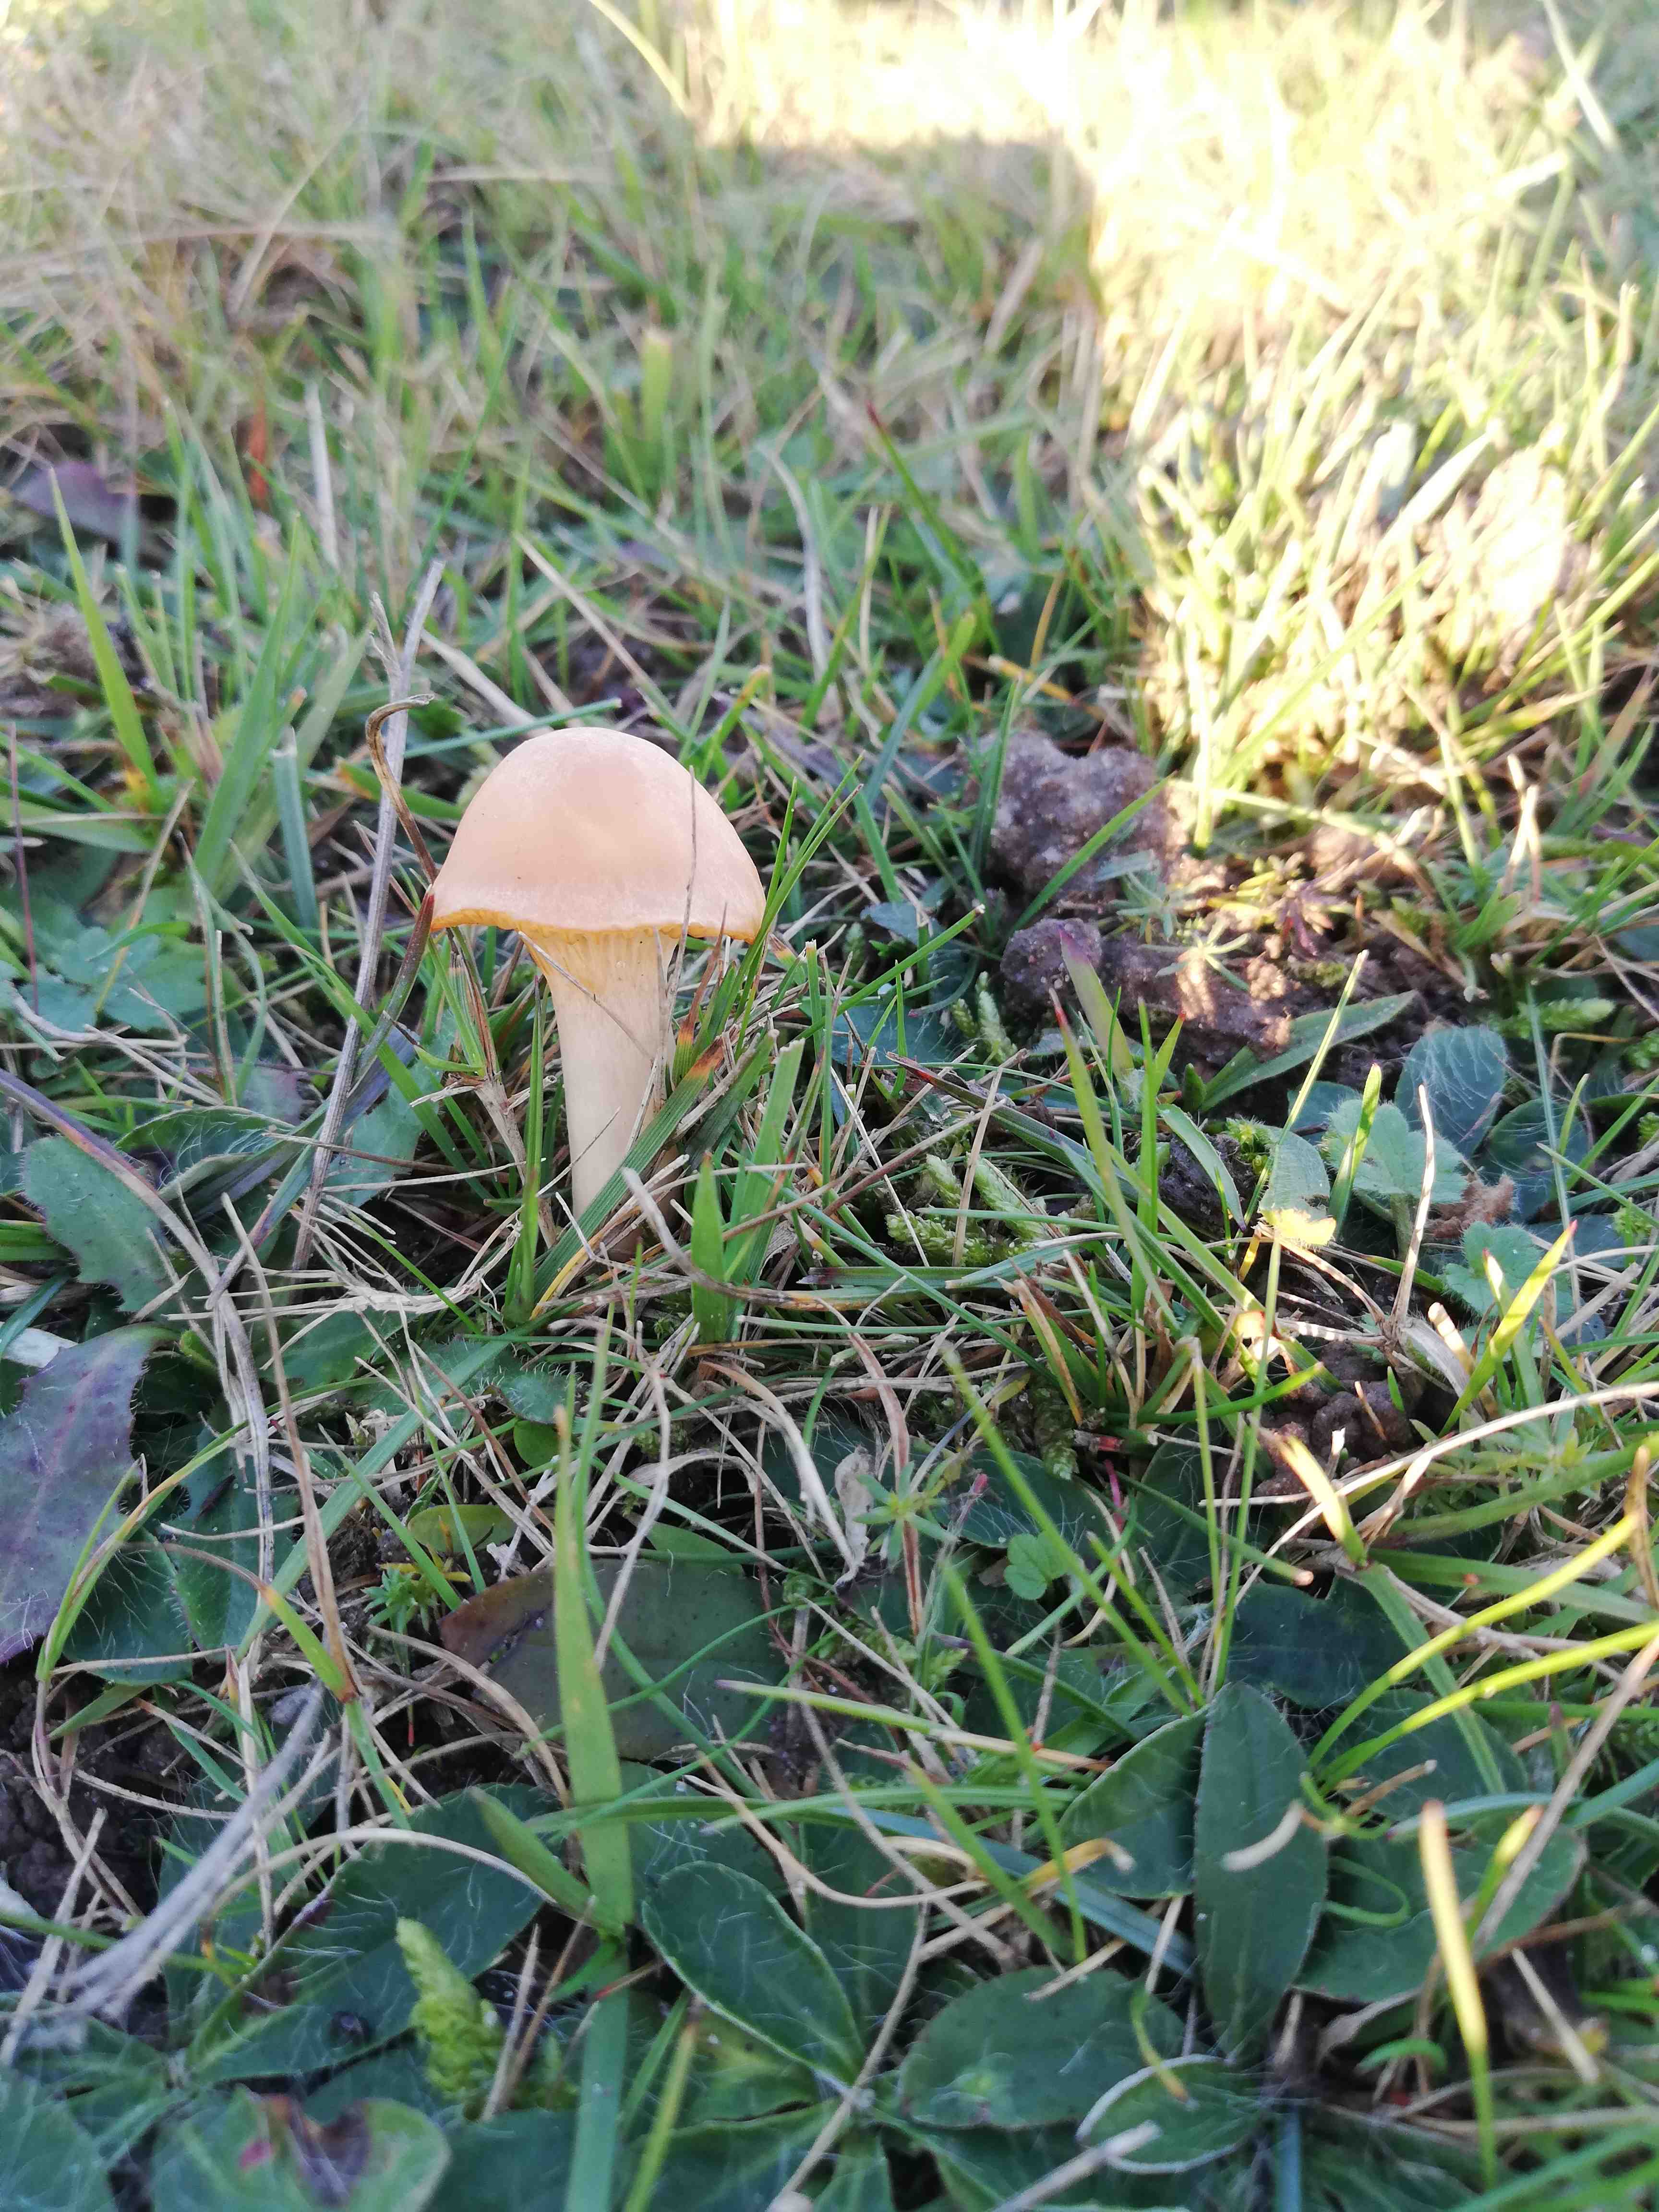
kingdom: Fungi
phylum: Basidiomycota
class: Agaricomycetes
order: Agaricales
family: Hygrophoraceae
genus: Cuphophyllus
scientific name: Cuphophyllus pratensis
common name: eng-vokshat
